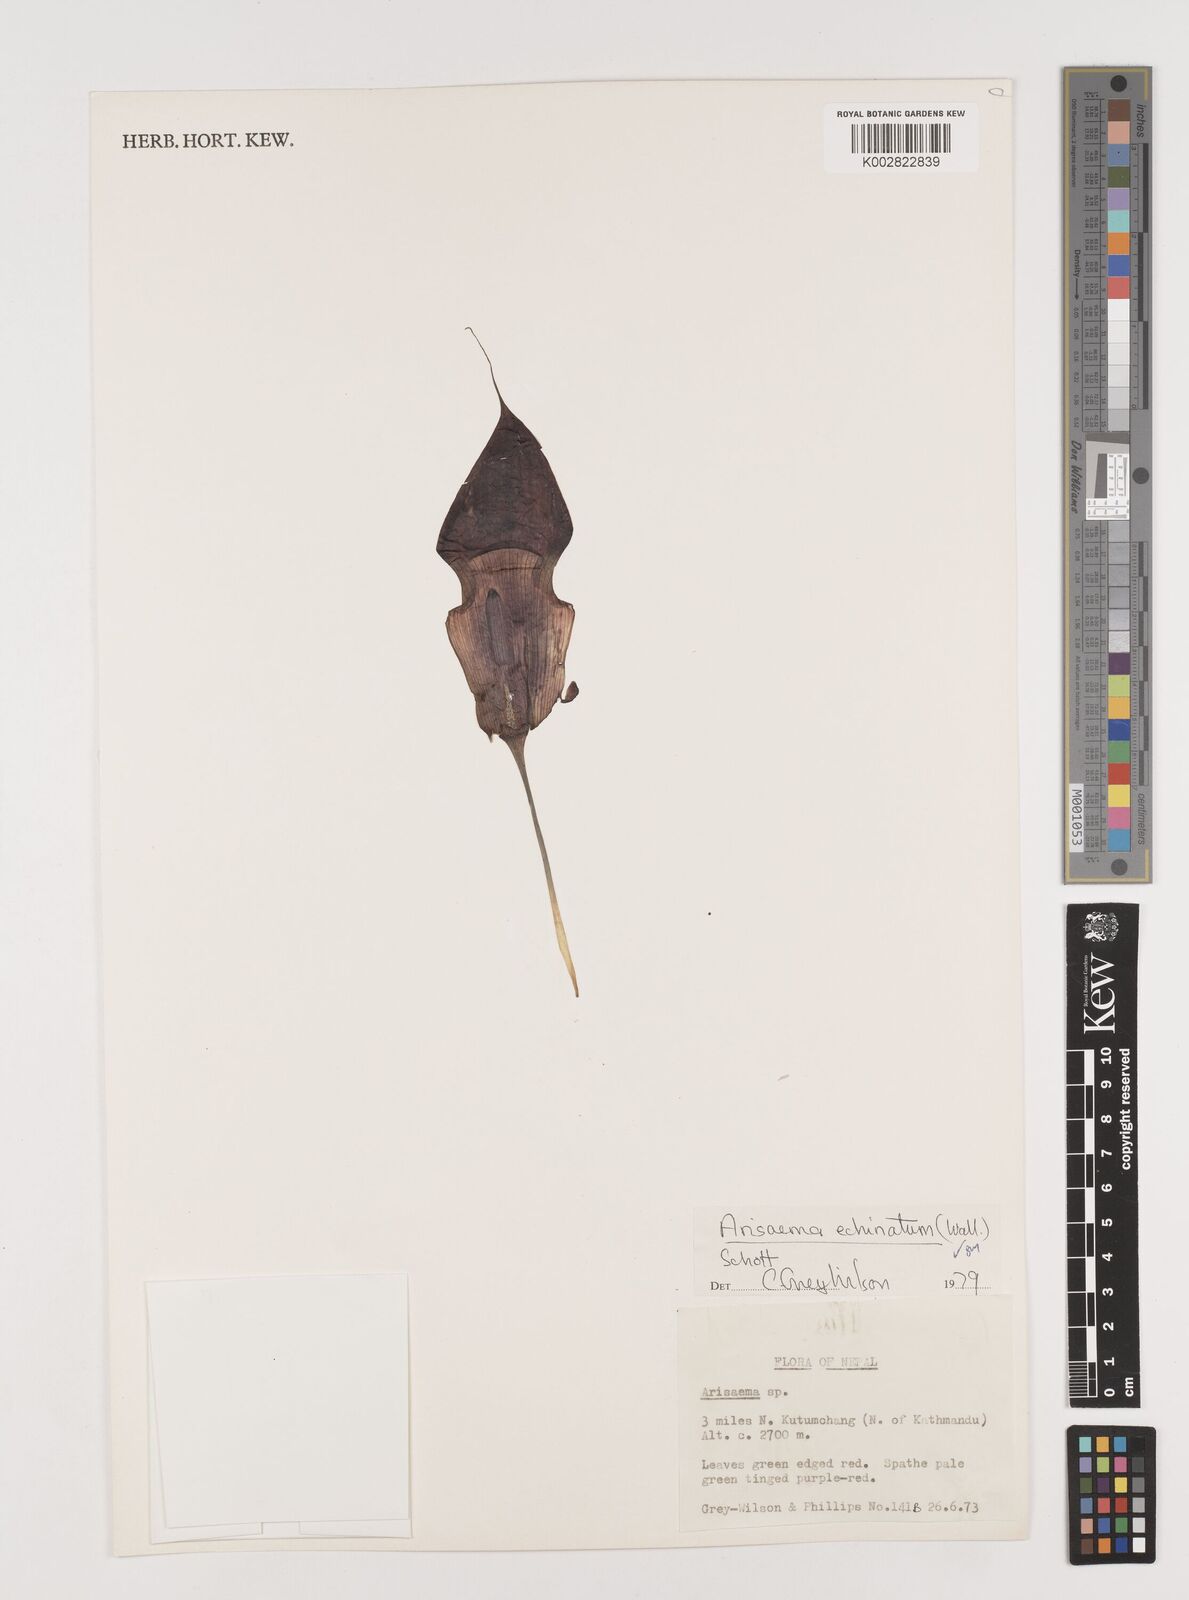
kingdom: Plantae
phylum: Tracheophyta
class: Liliopsida
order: Alismatales
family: Araceae
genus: Arisaema
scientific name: Arisaema echinatum
